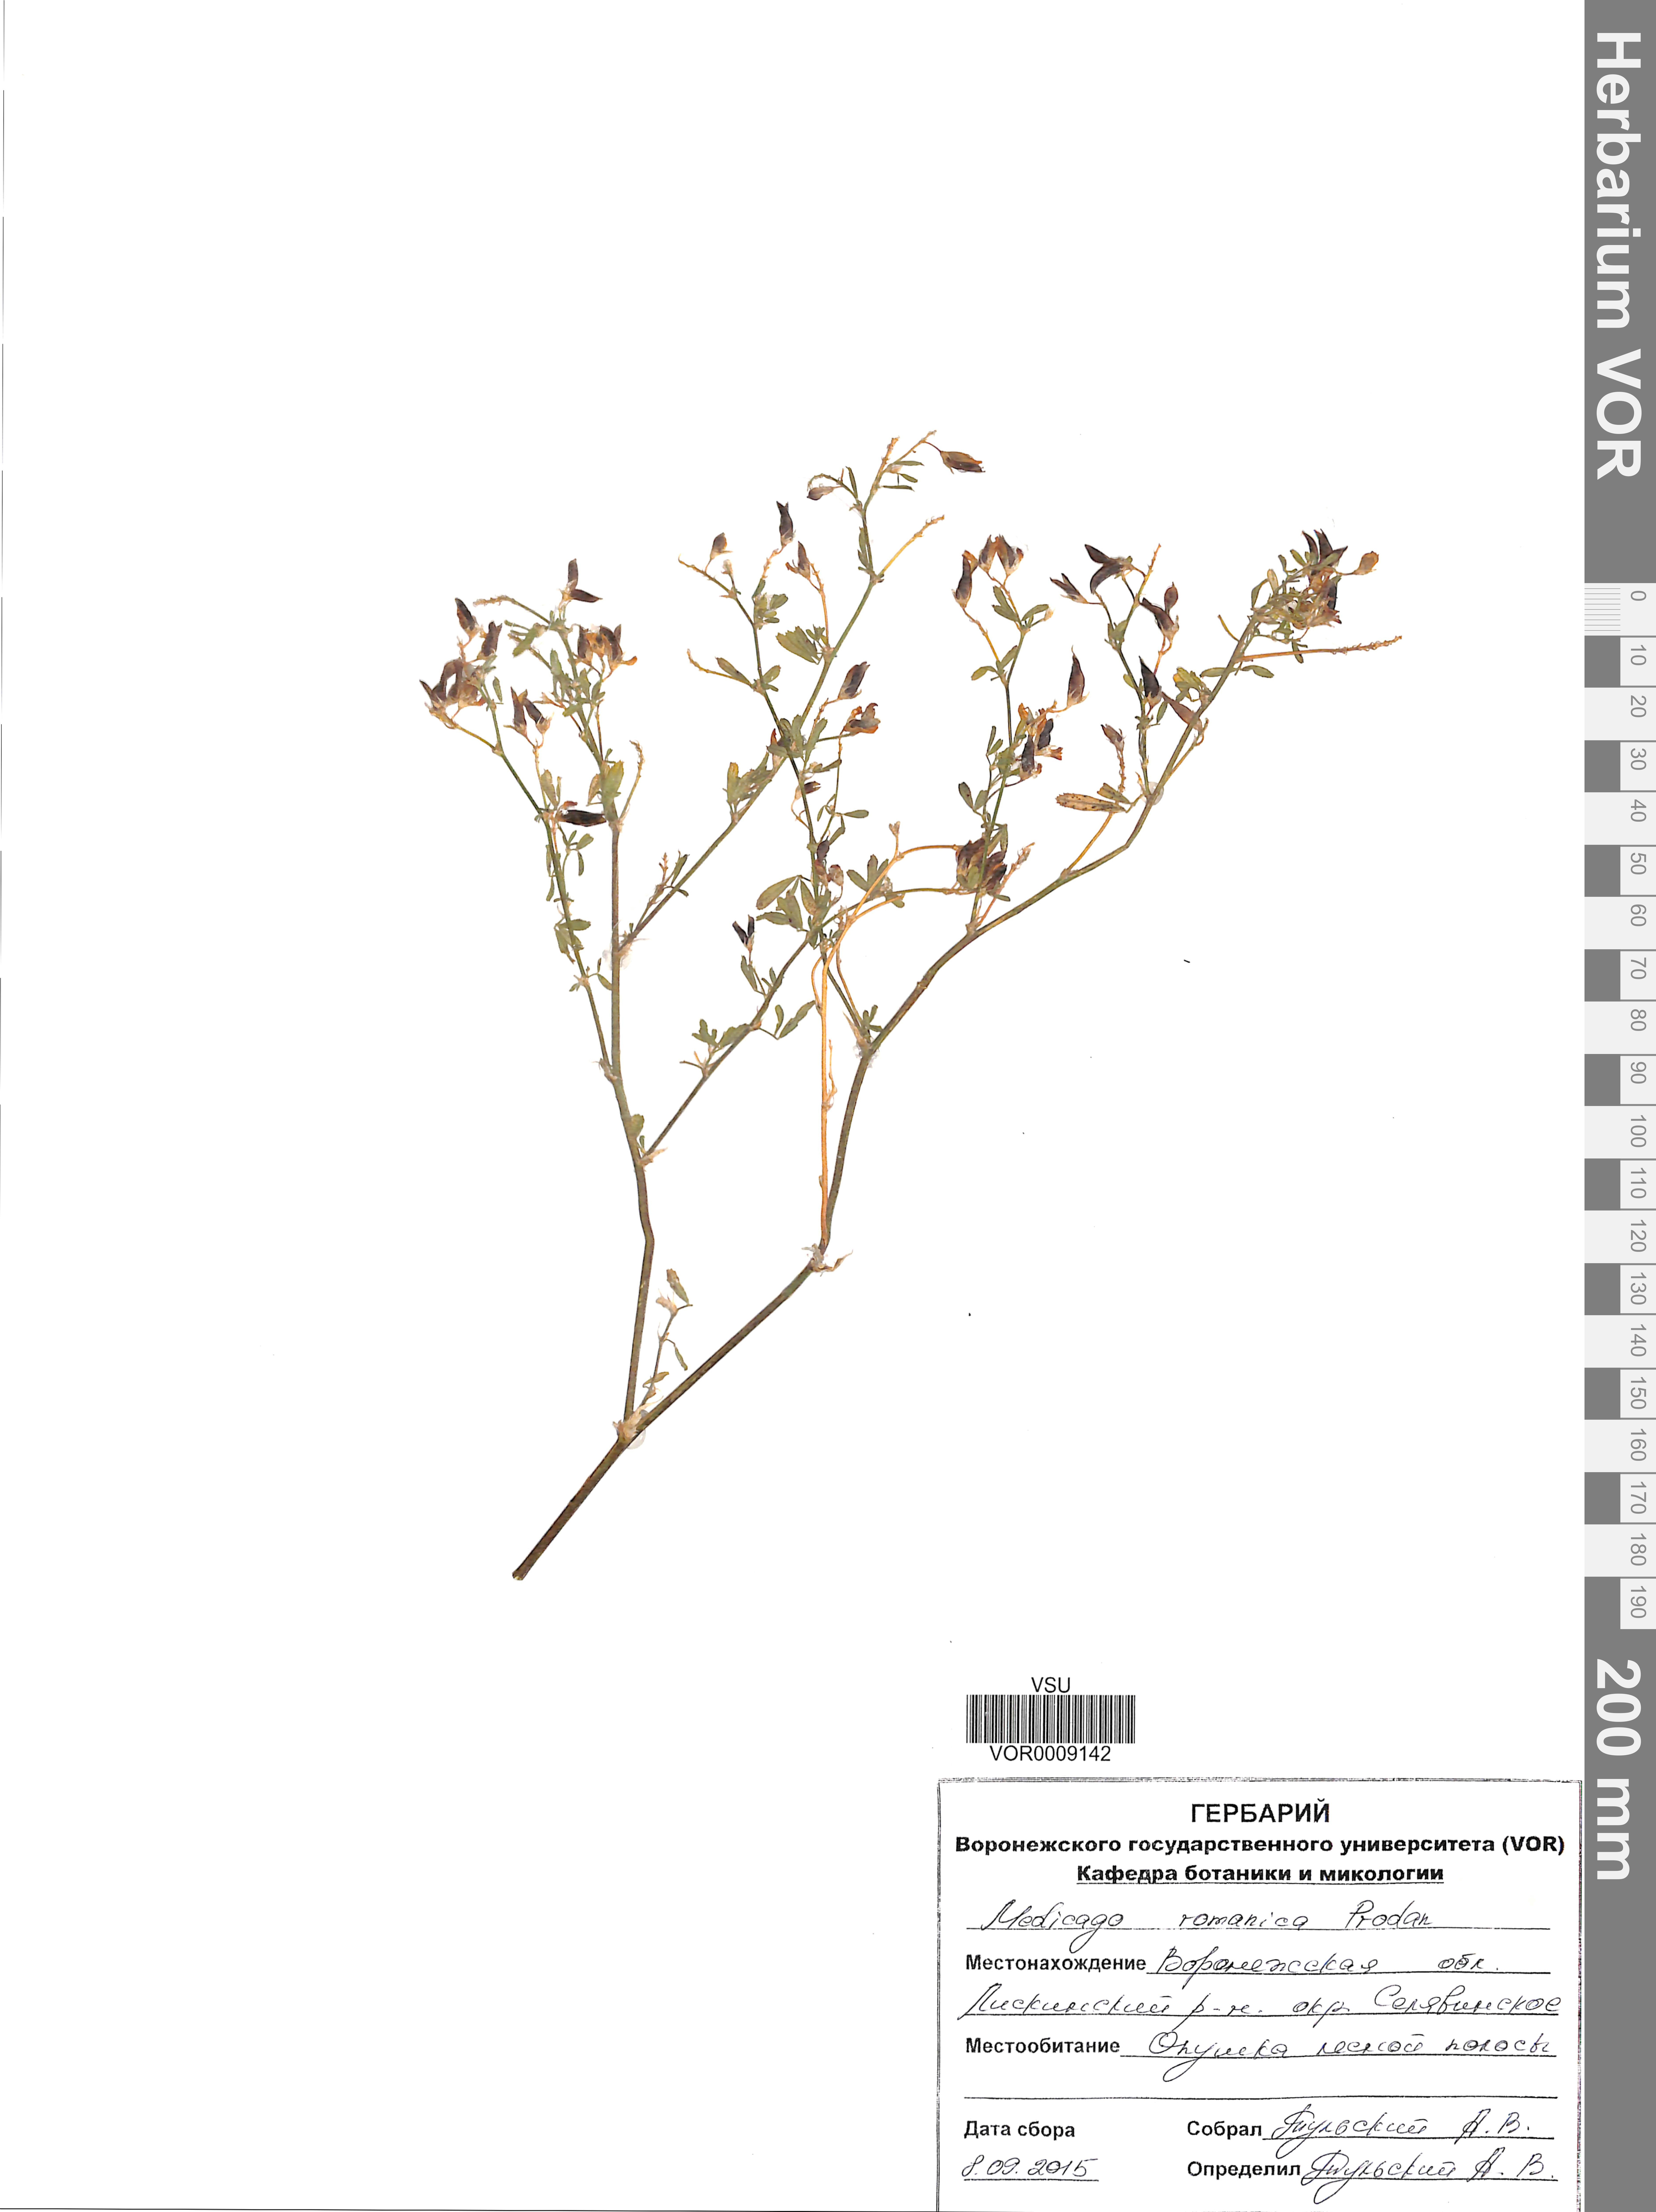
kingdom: Plantae
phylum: Tracheophyta
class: Magnoliopsida
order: Fabales
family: Fabaceae
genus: Medicago
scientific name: Medicago falcata
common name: Sickle medick
